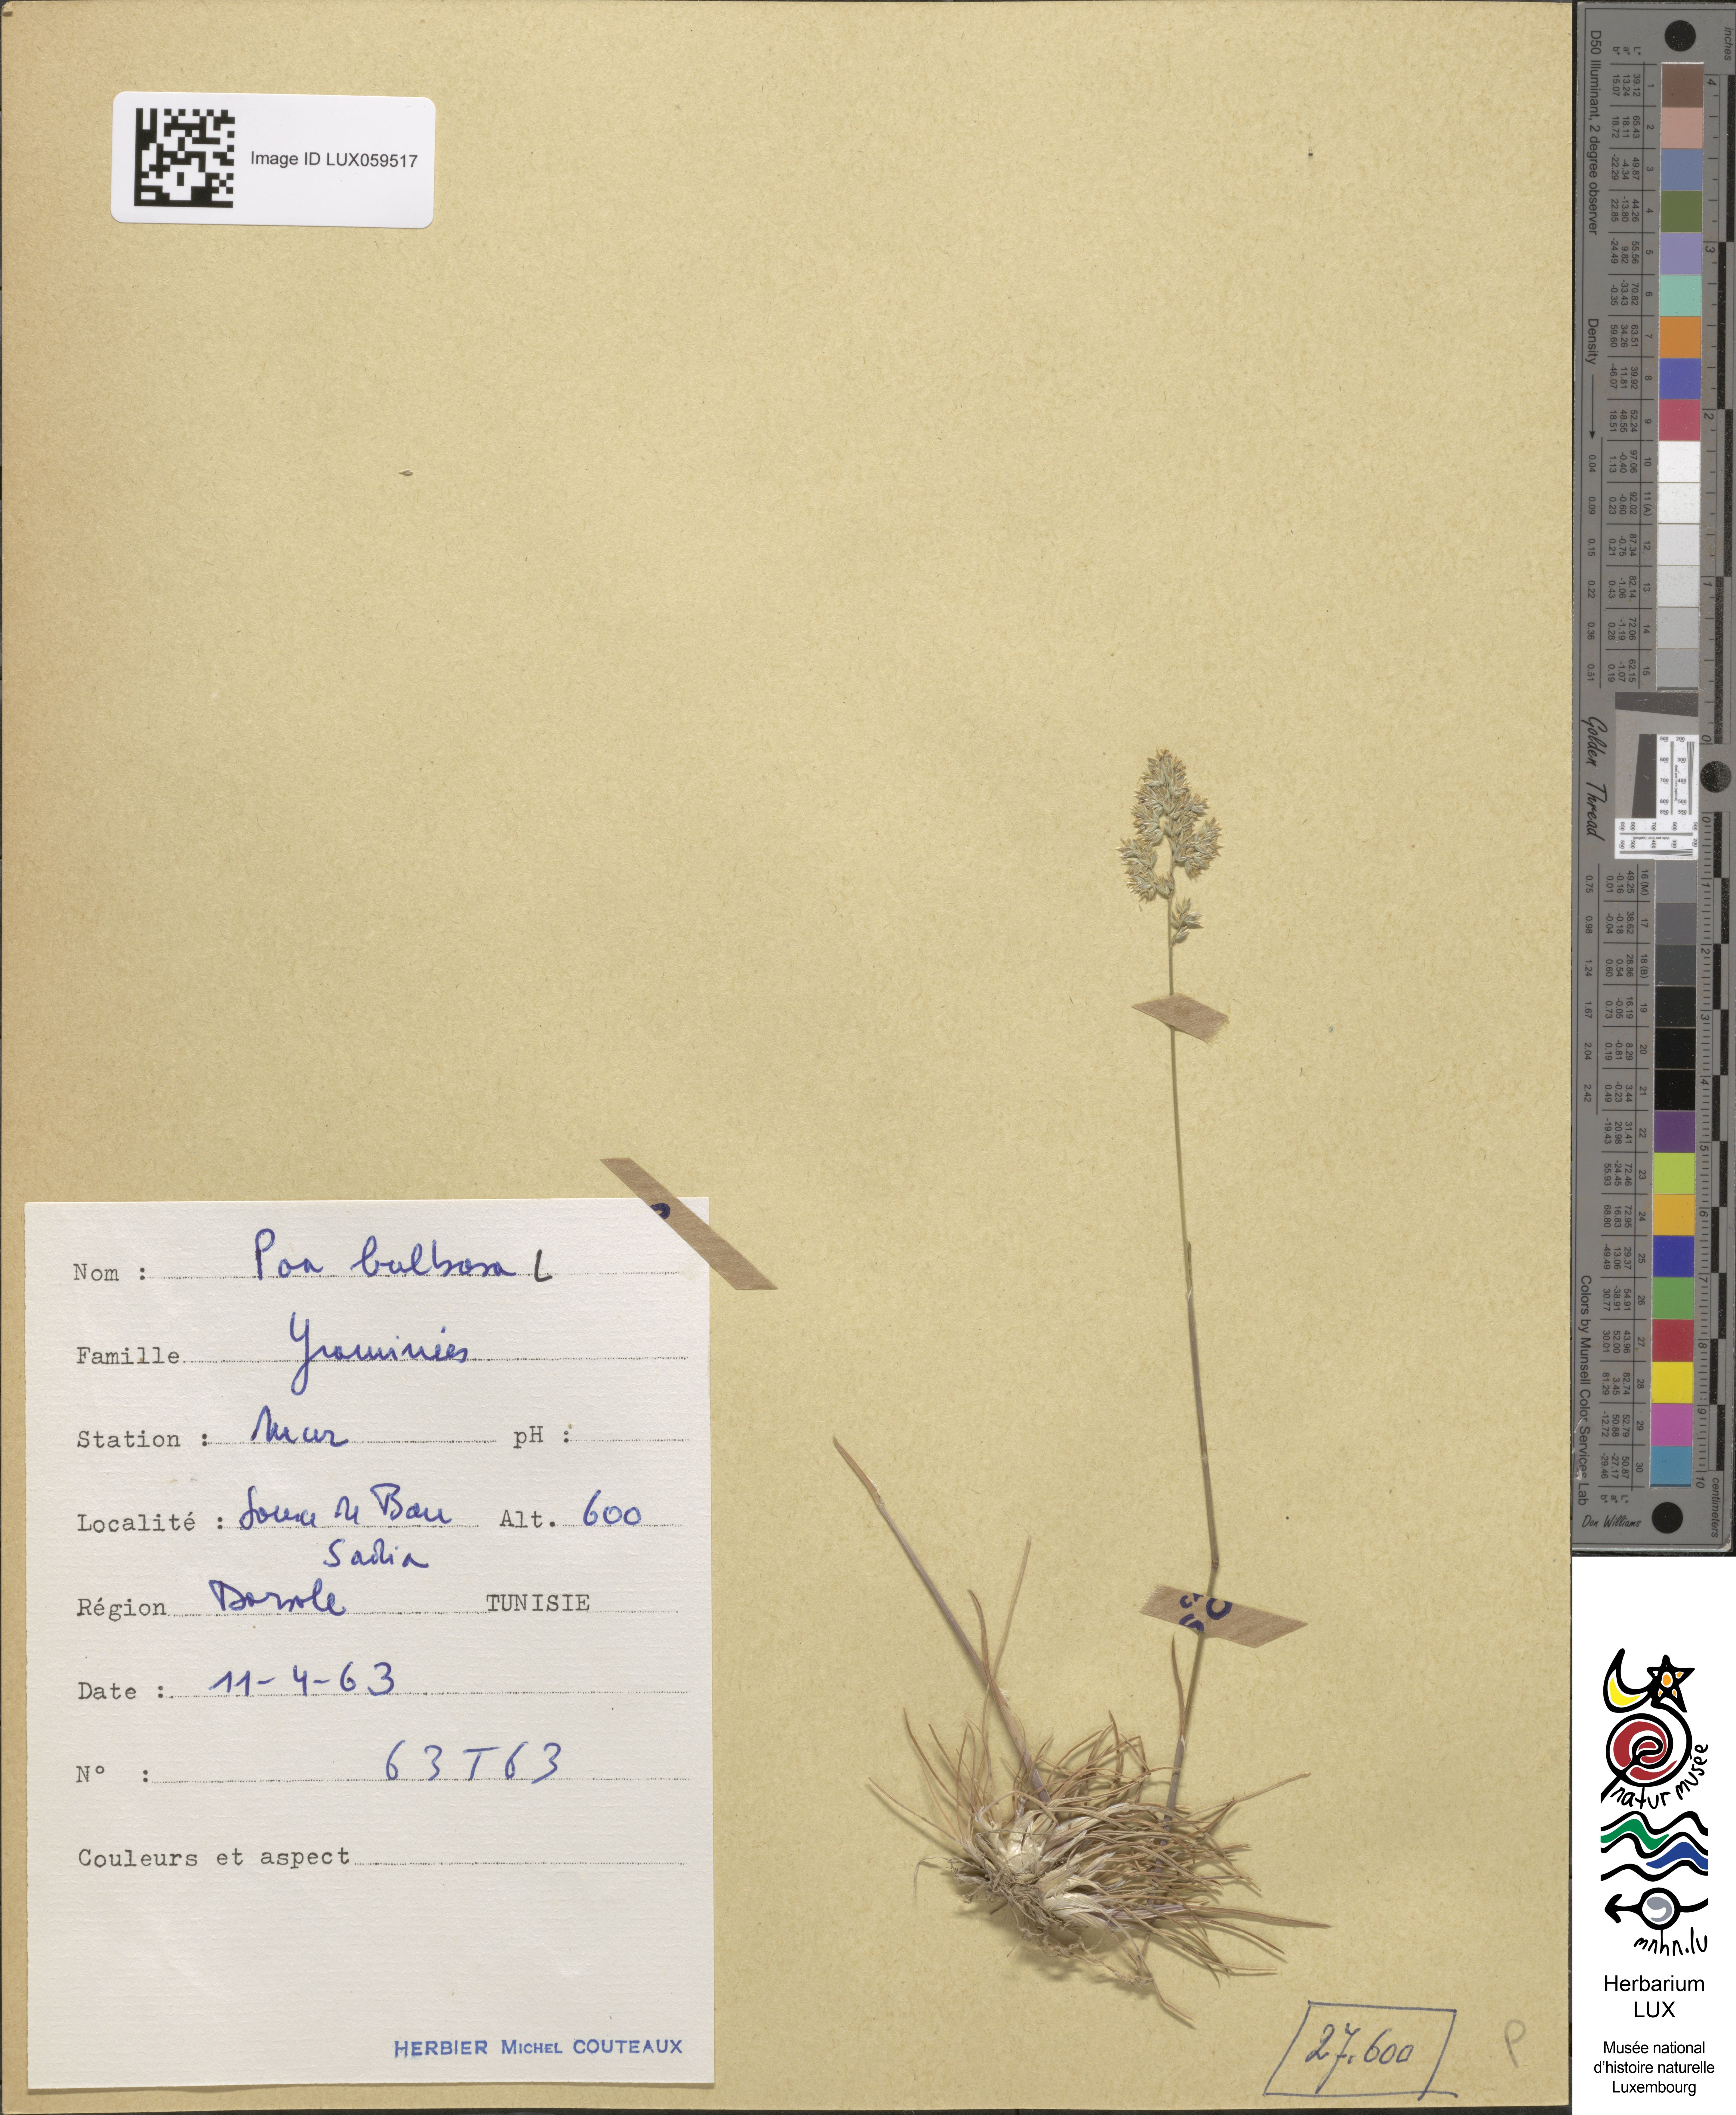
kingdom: Plantae
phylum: Tracheophyta
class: Liliopsida
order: Poales
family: Poaceae
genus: Poa
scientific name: Poa bulbosa
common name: Bulbous bluegrass
